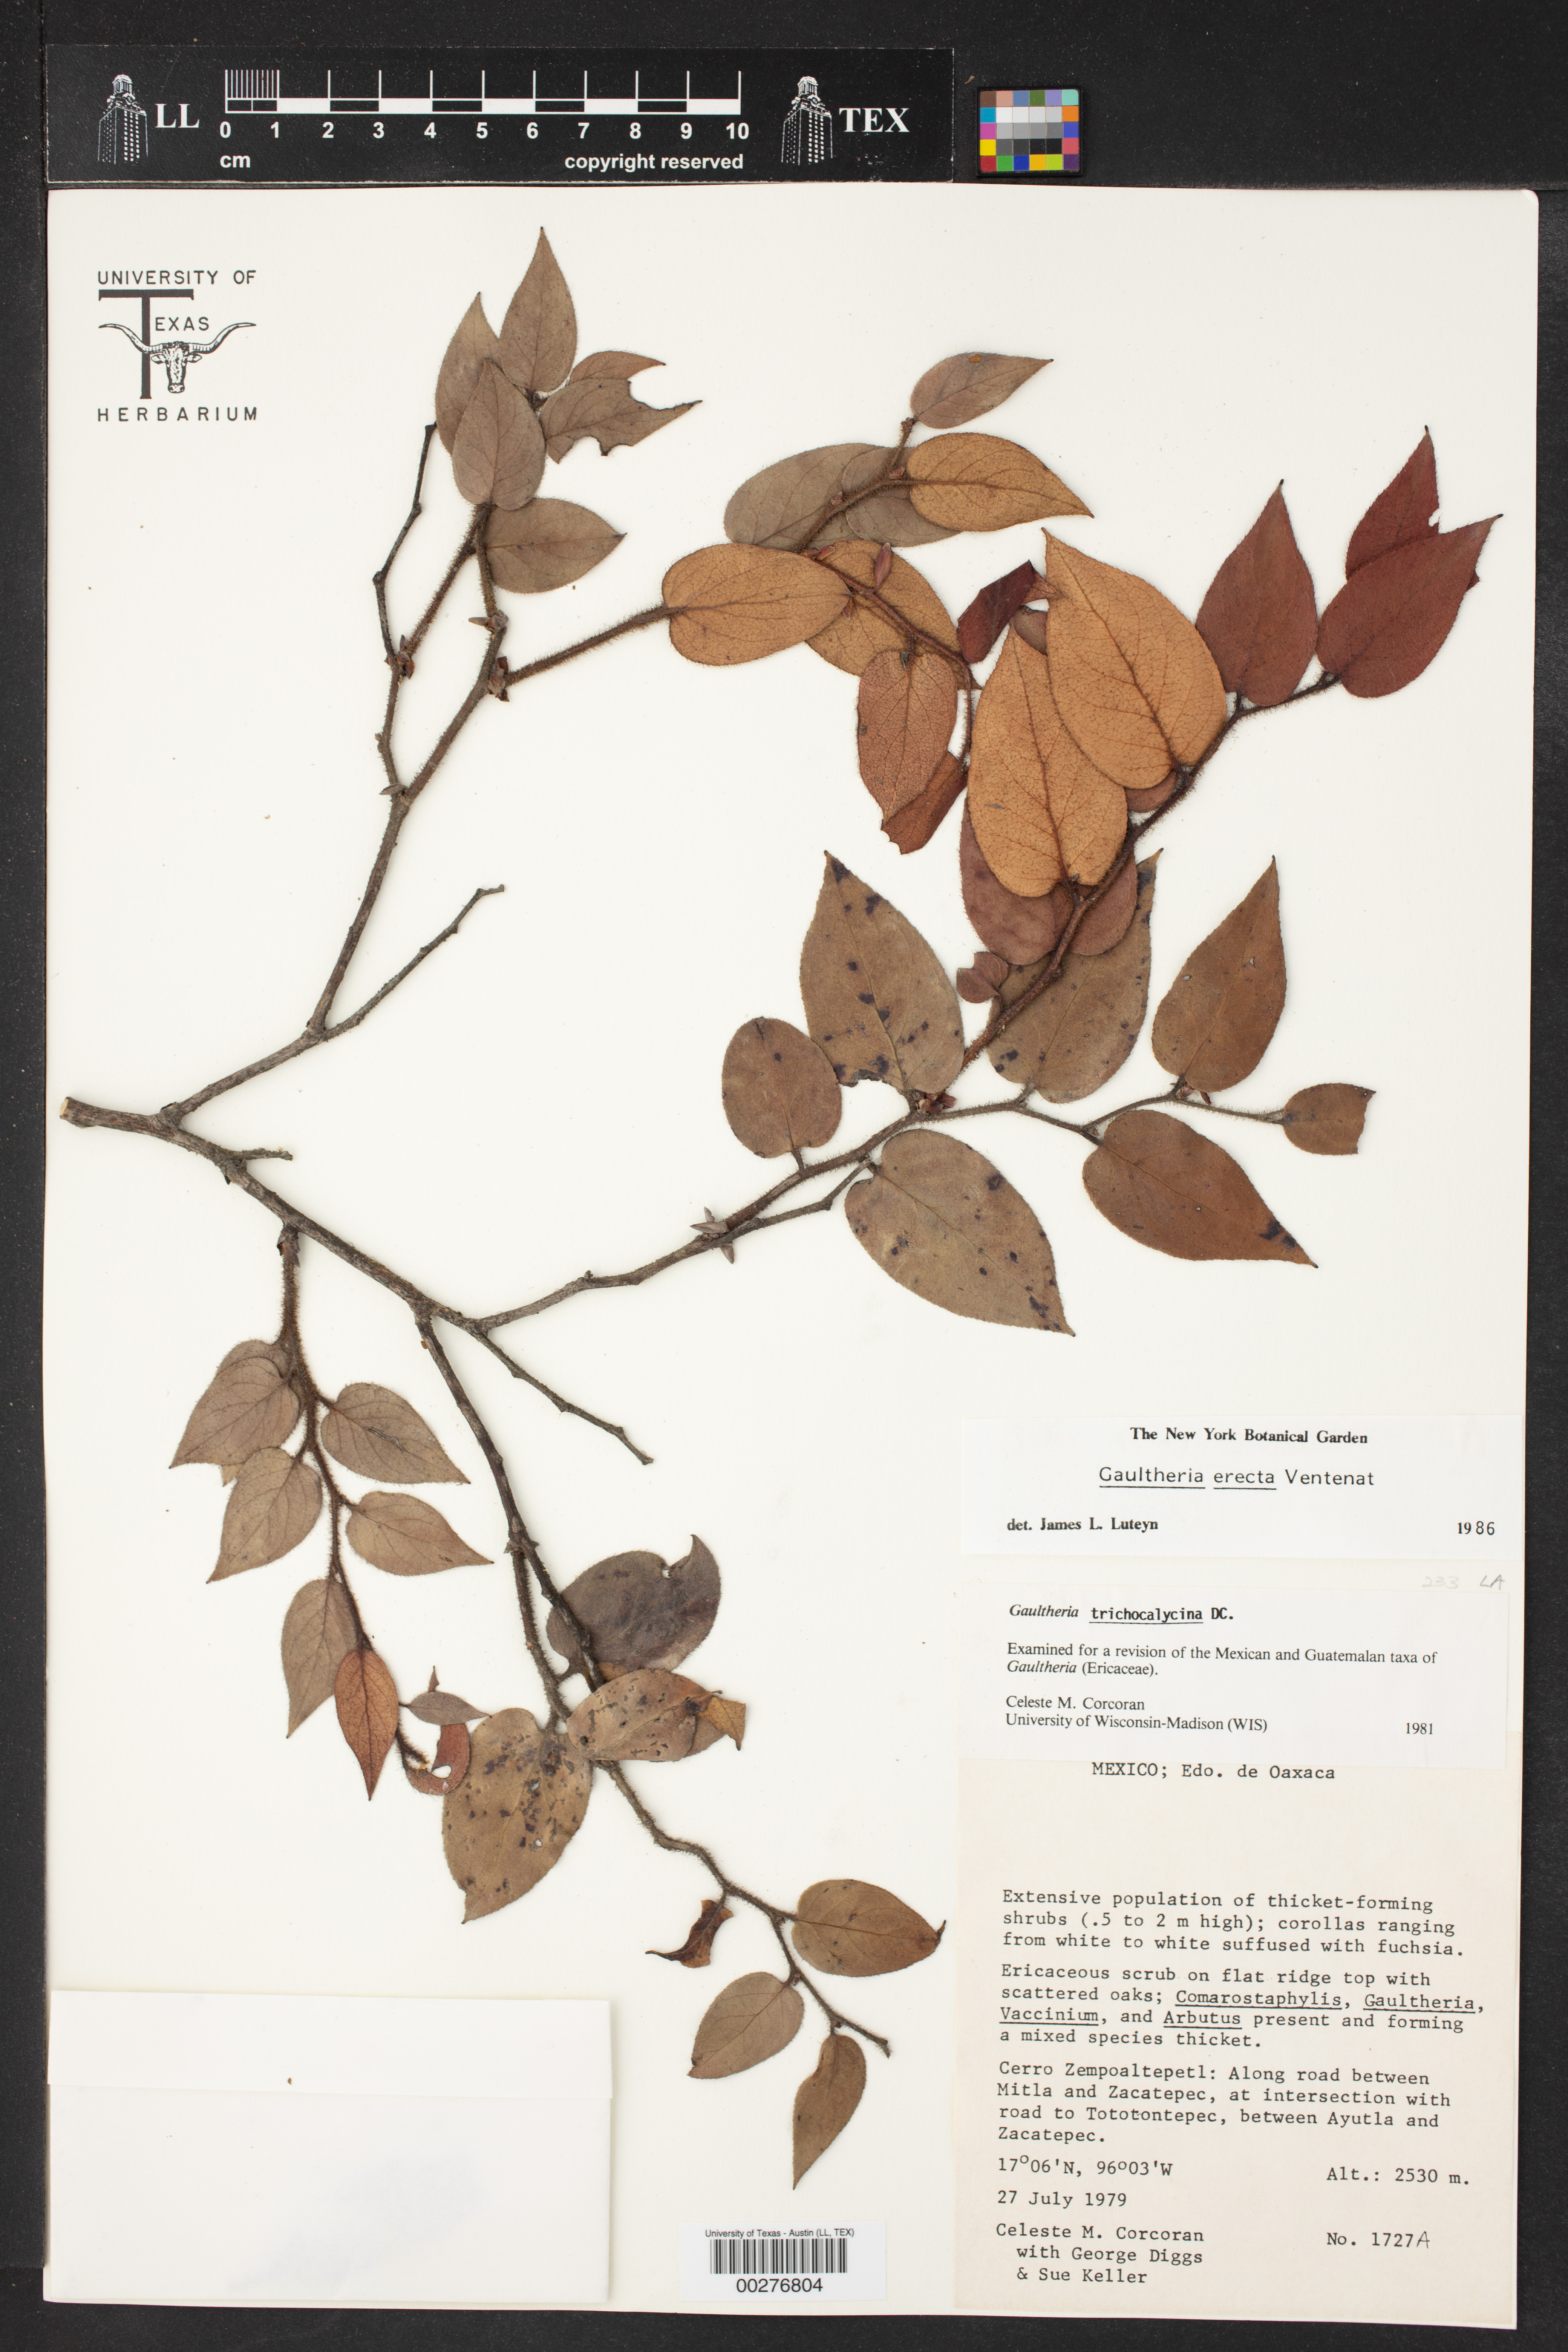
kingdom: Plantae
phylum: Tracheophyta
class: Magnoliopsida
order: Ericales
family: Ericaceae
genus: Gaultheria
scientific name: Gaultheria erecta
